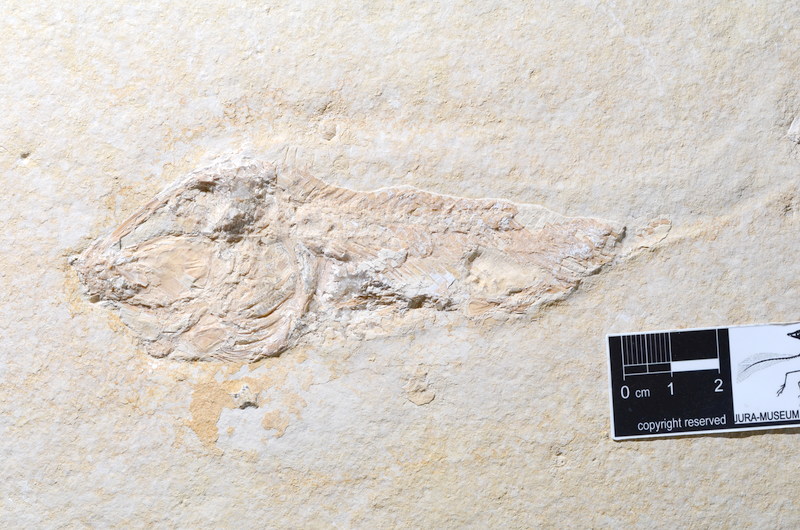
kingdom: Animalia
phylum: Chordata
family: Macrosemiidae
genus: Macrosemius
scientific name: Macrosemius rostratus
